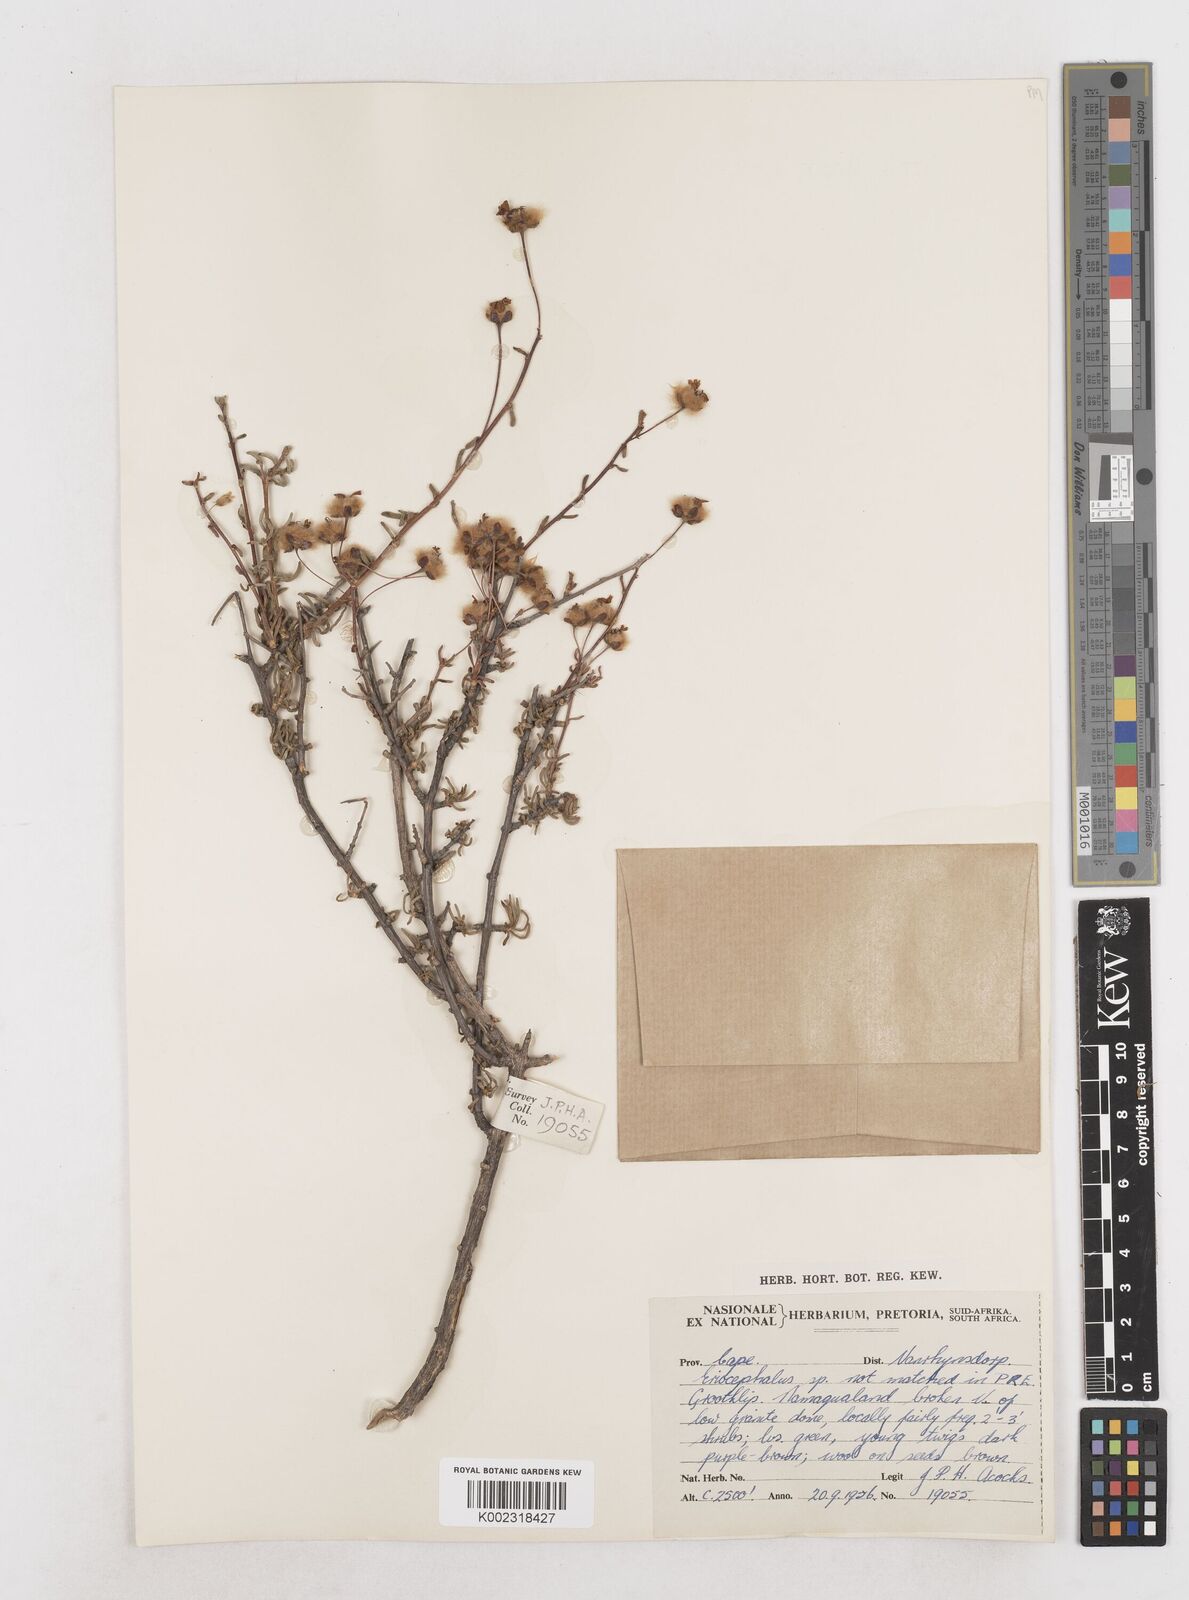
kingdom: Plantae
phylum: Tracheophyta
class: Magnoliopsida
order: Asterales
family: Asteraceae
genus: Eriocephalus
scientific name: Eriocephalus
